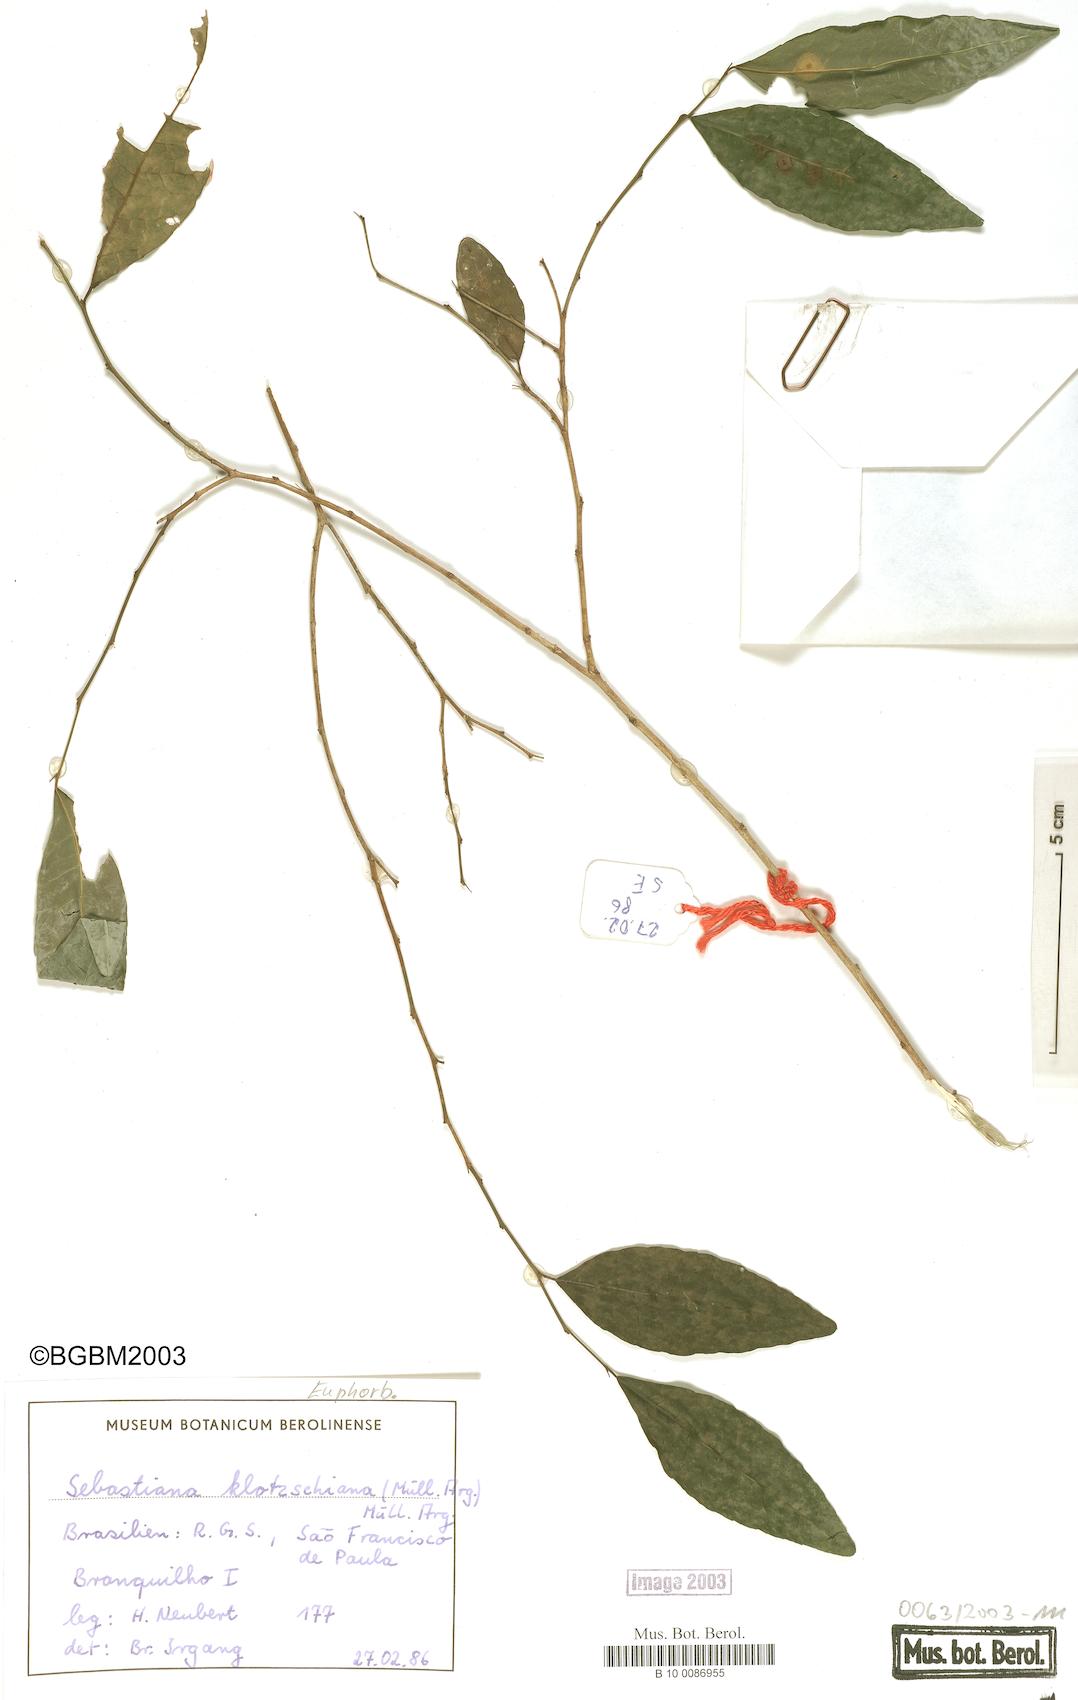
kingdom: Plantae
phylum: Tracheophyta
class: Magnoliopsida
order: Malpighiales
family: Euphorbiaceae
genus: Sebastiania
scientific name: Sebastiania klotzschiana
